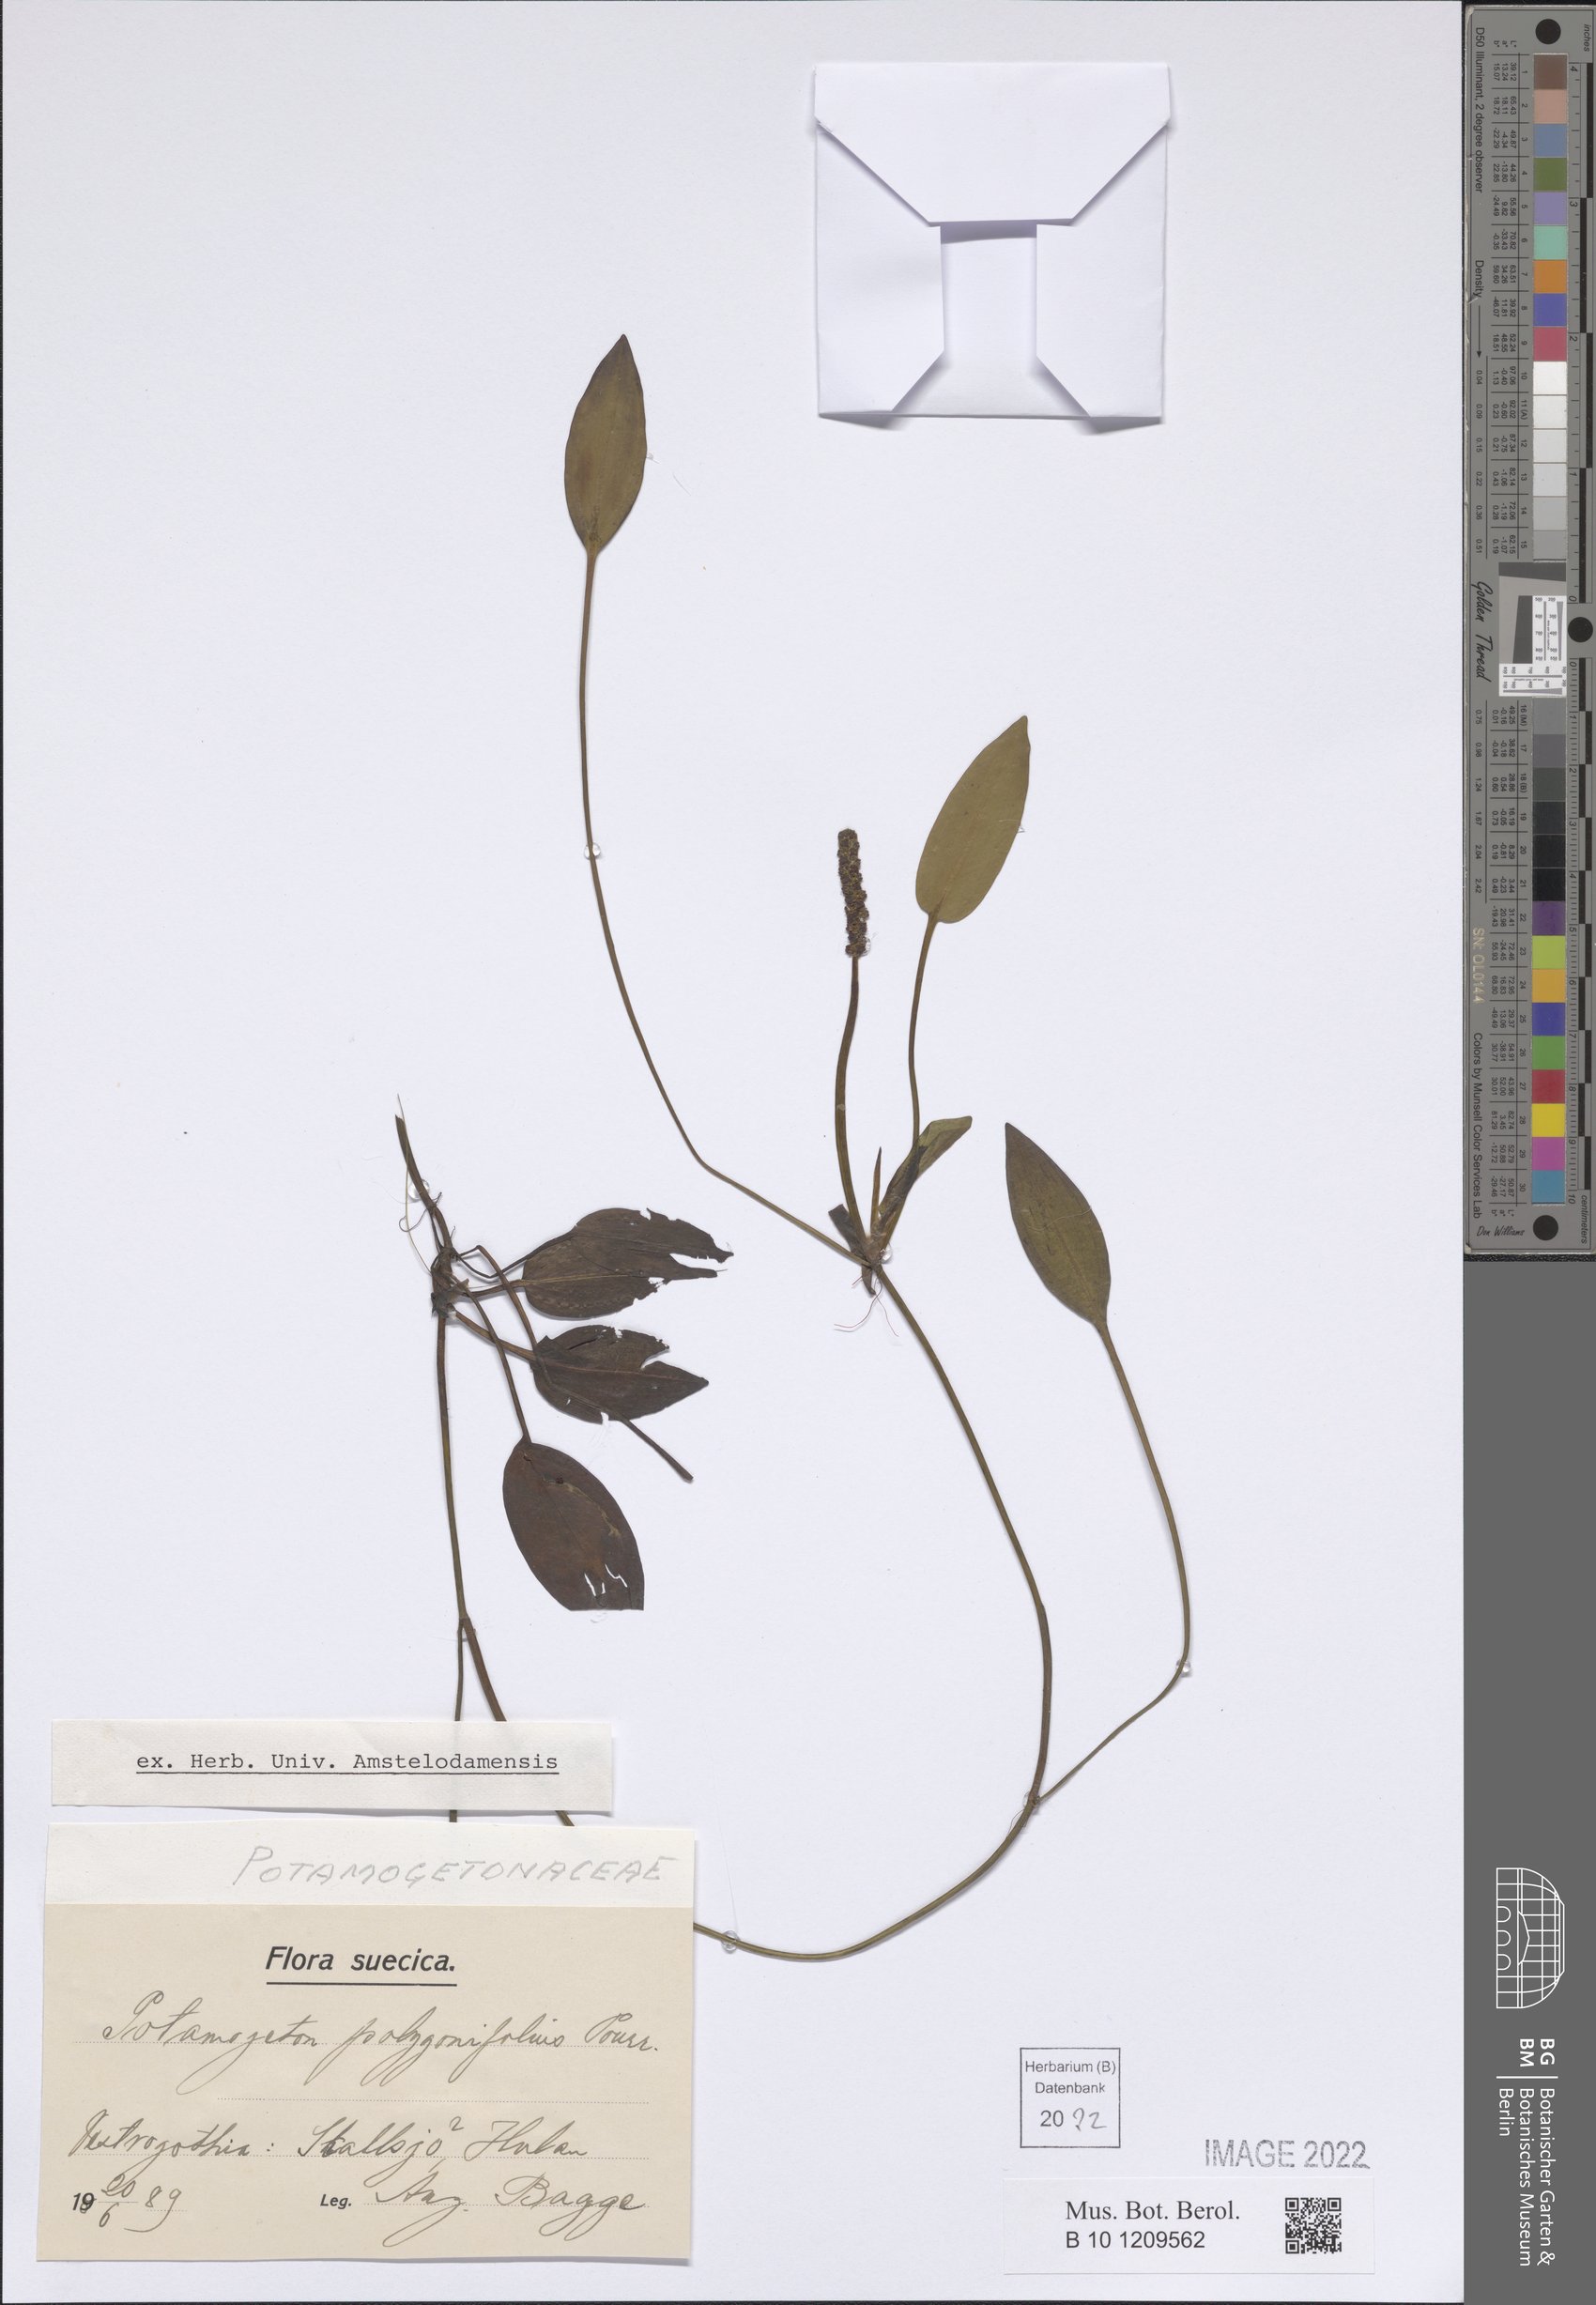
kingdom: Plantae
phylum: Tracheophyta
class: Liliopsida
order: Alismatales
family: Potamogetonaceae
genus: Potamogeton
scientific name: Potamogeton polygonifolius
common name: Bog pondweed
